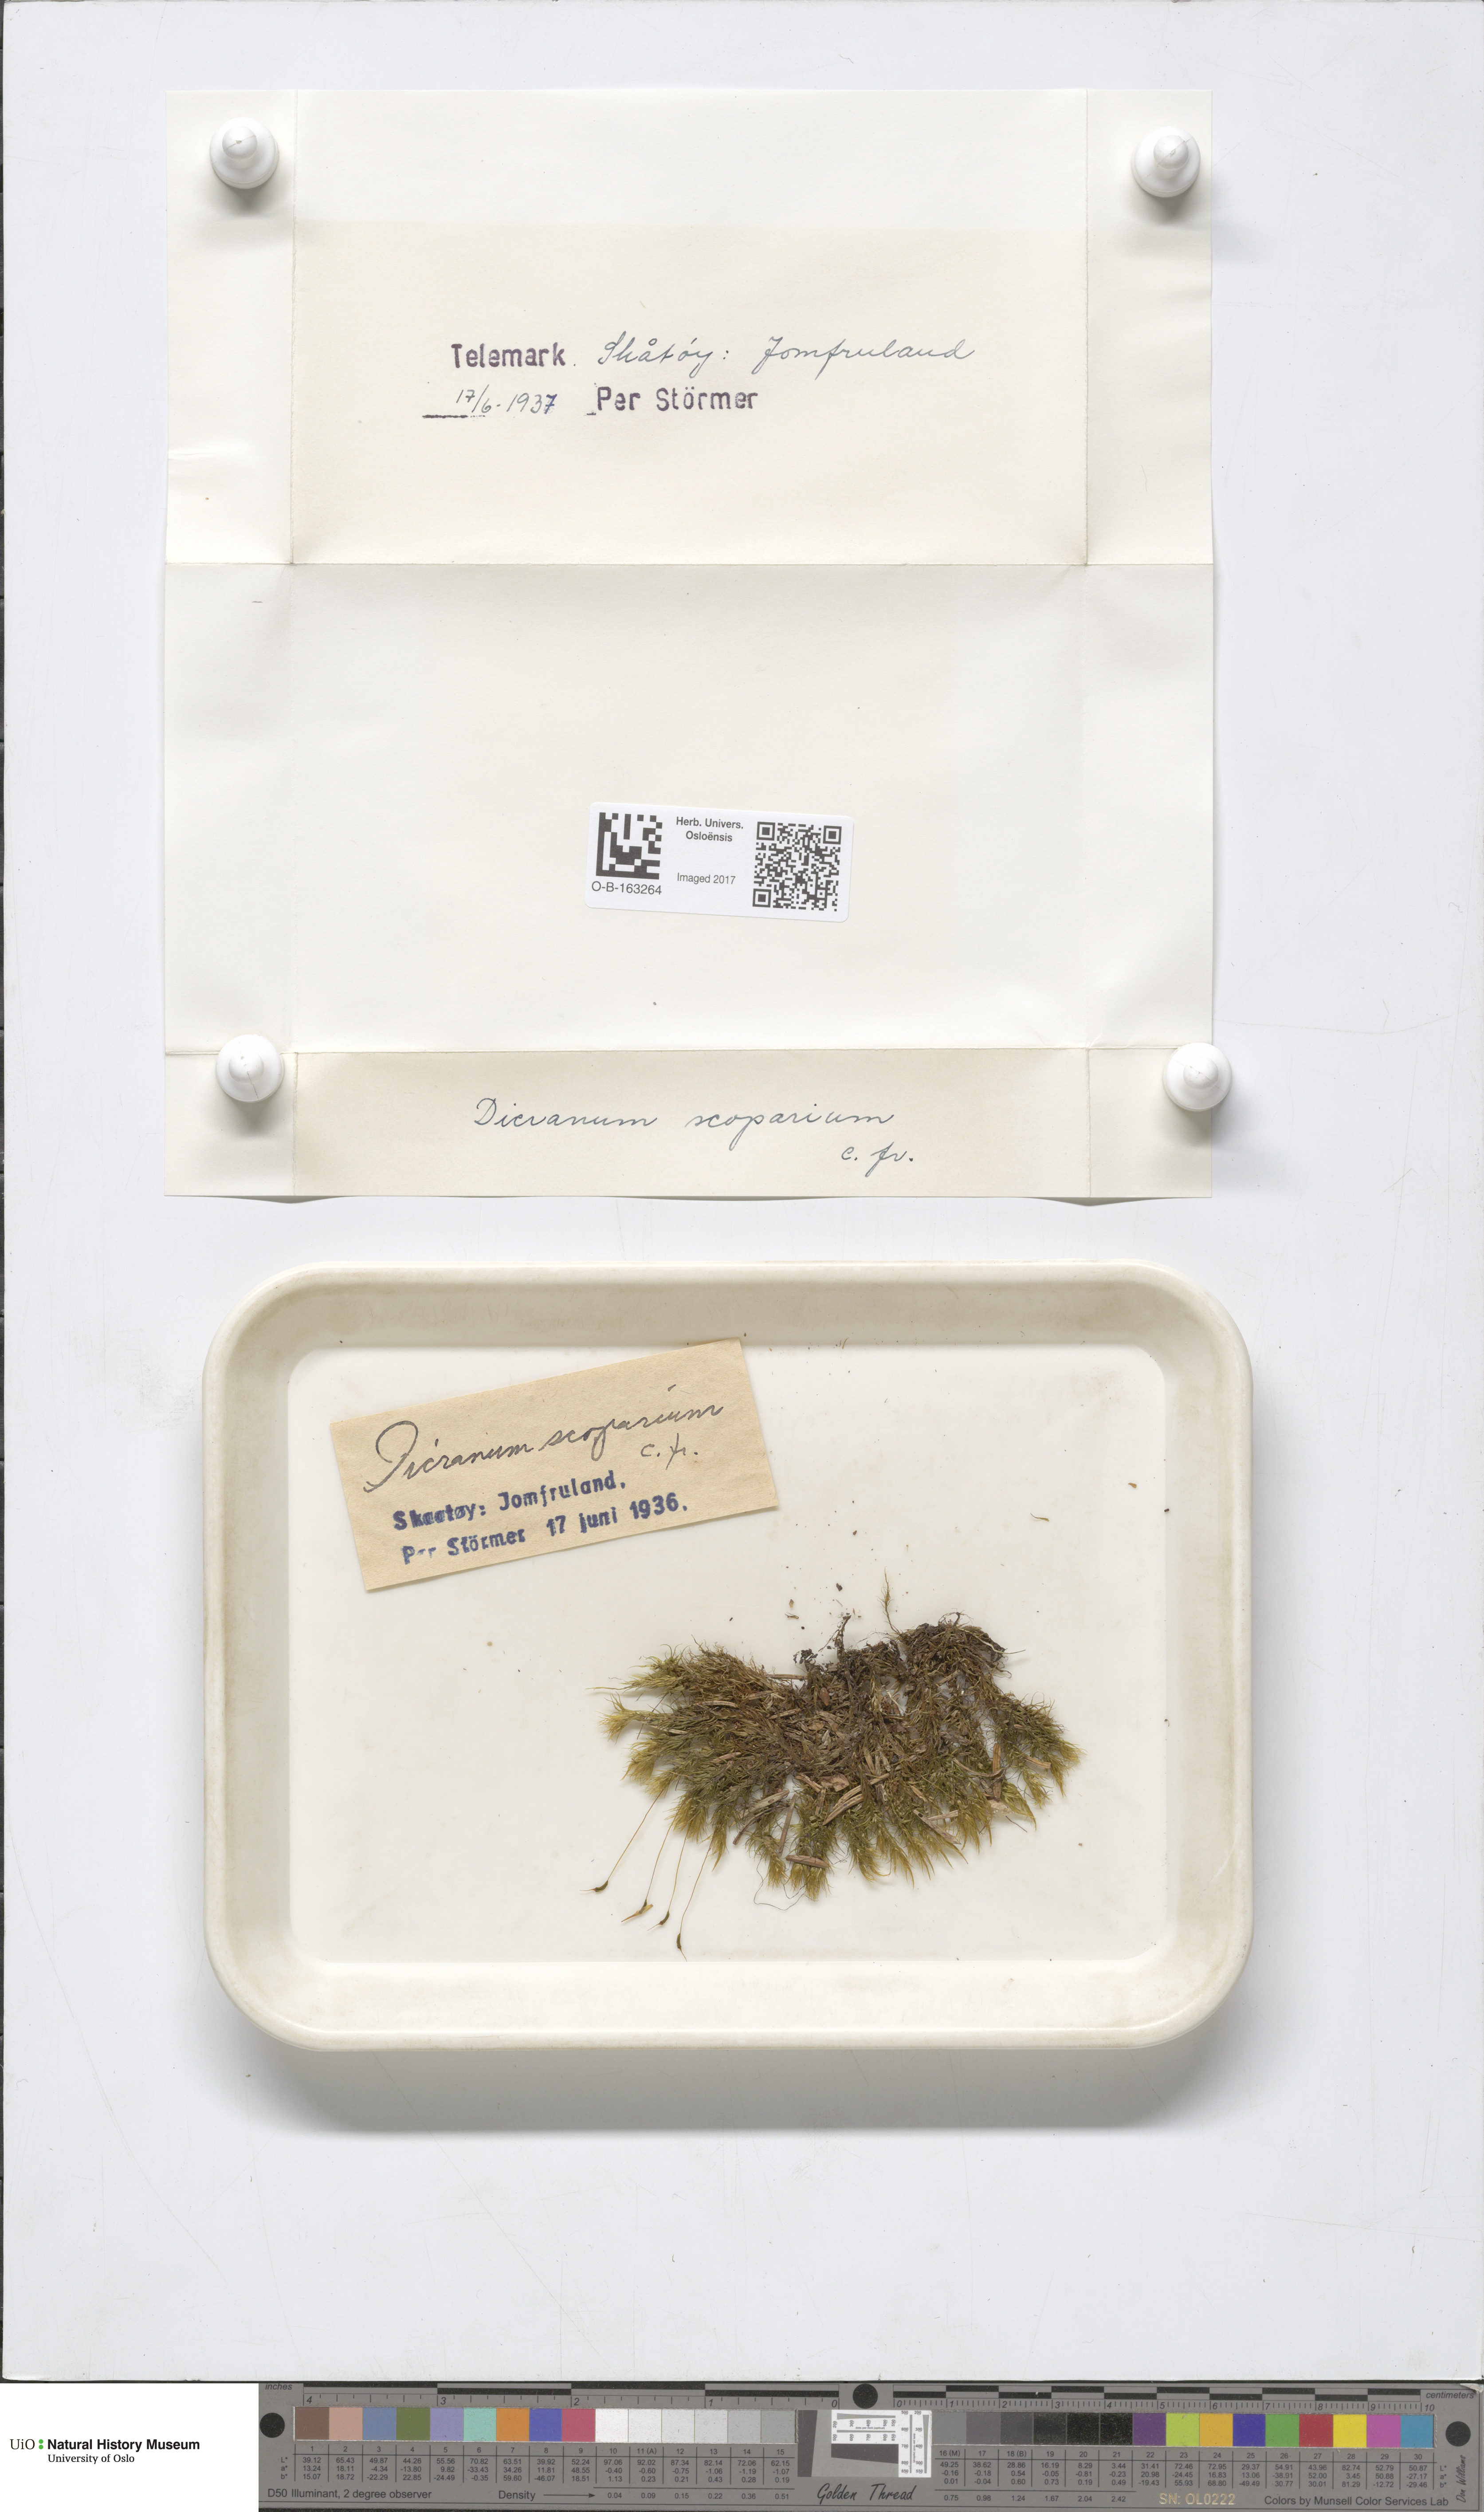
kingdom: Plantae
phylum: Bryophyta
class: Bryopsida
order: Dicranales
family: Dicranaceae
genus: Dicranum
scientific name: Dicranum scoparium
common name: Broom fork-moss
